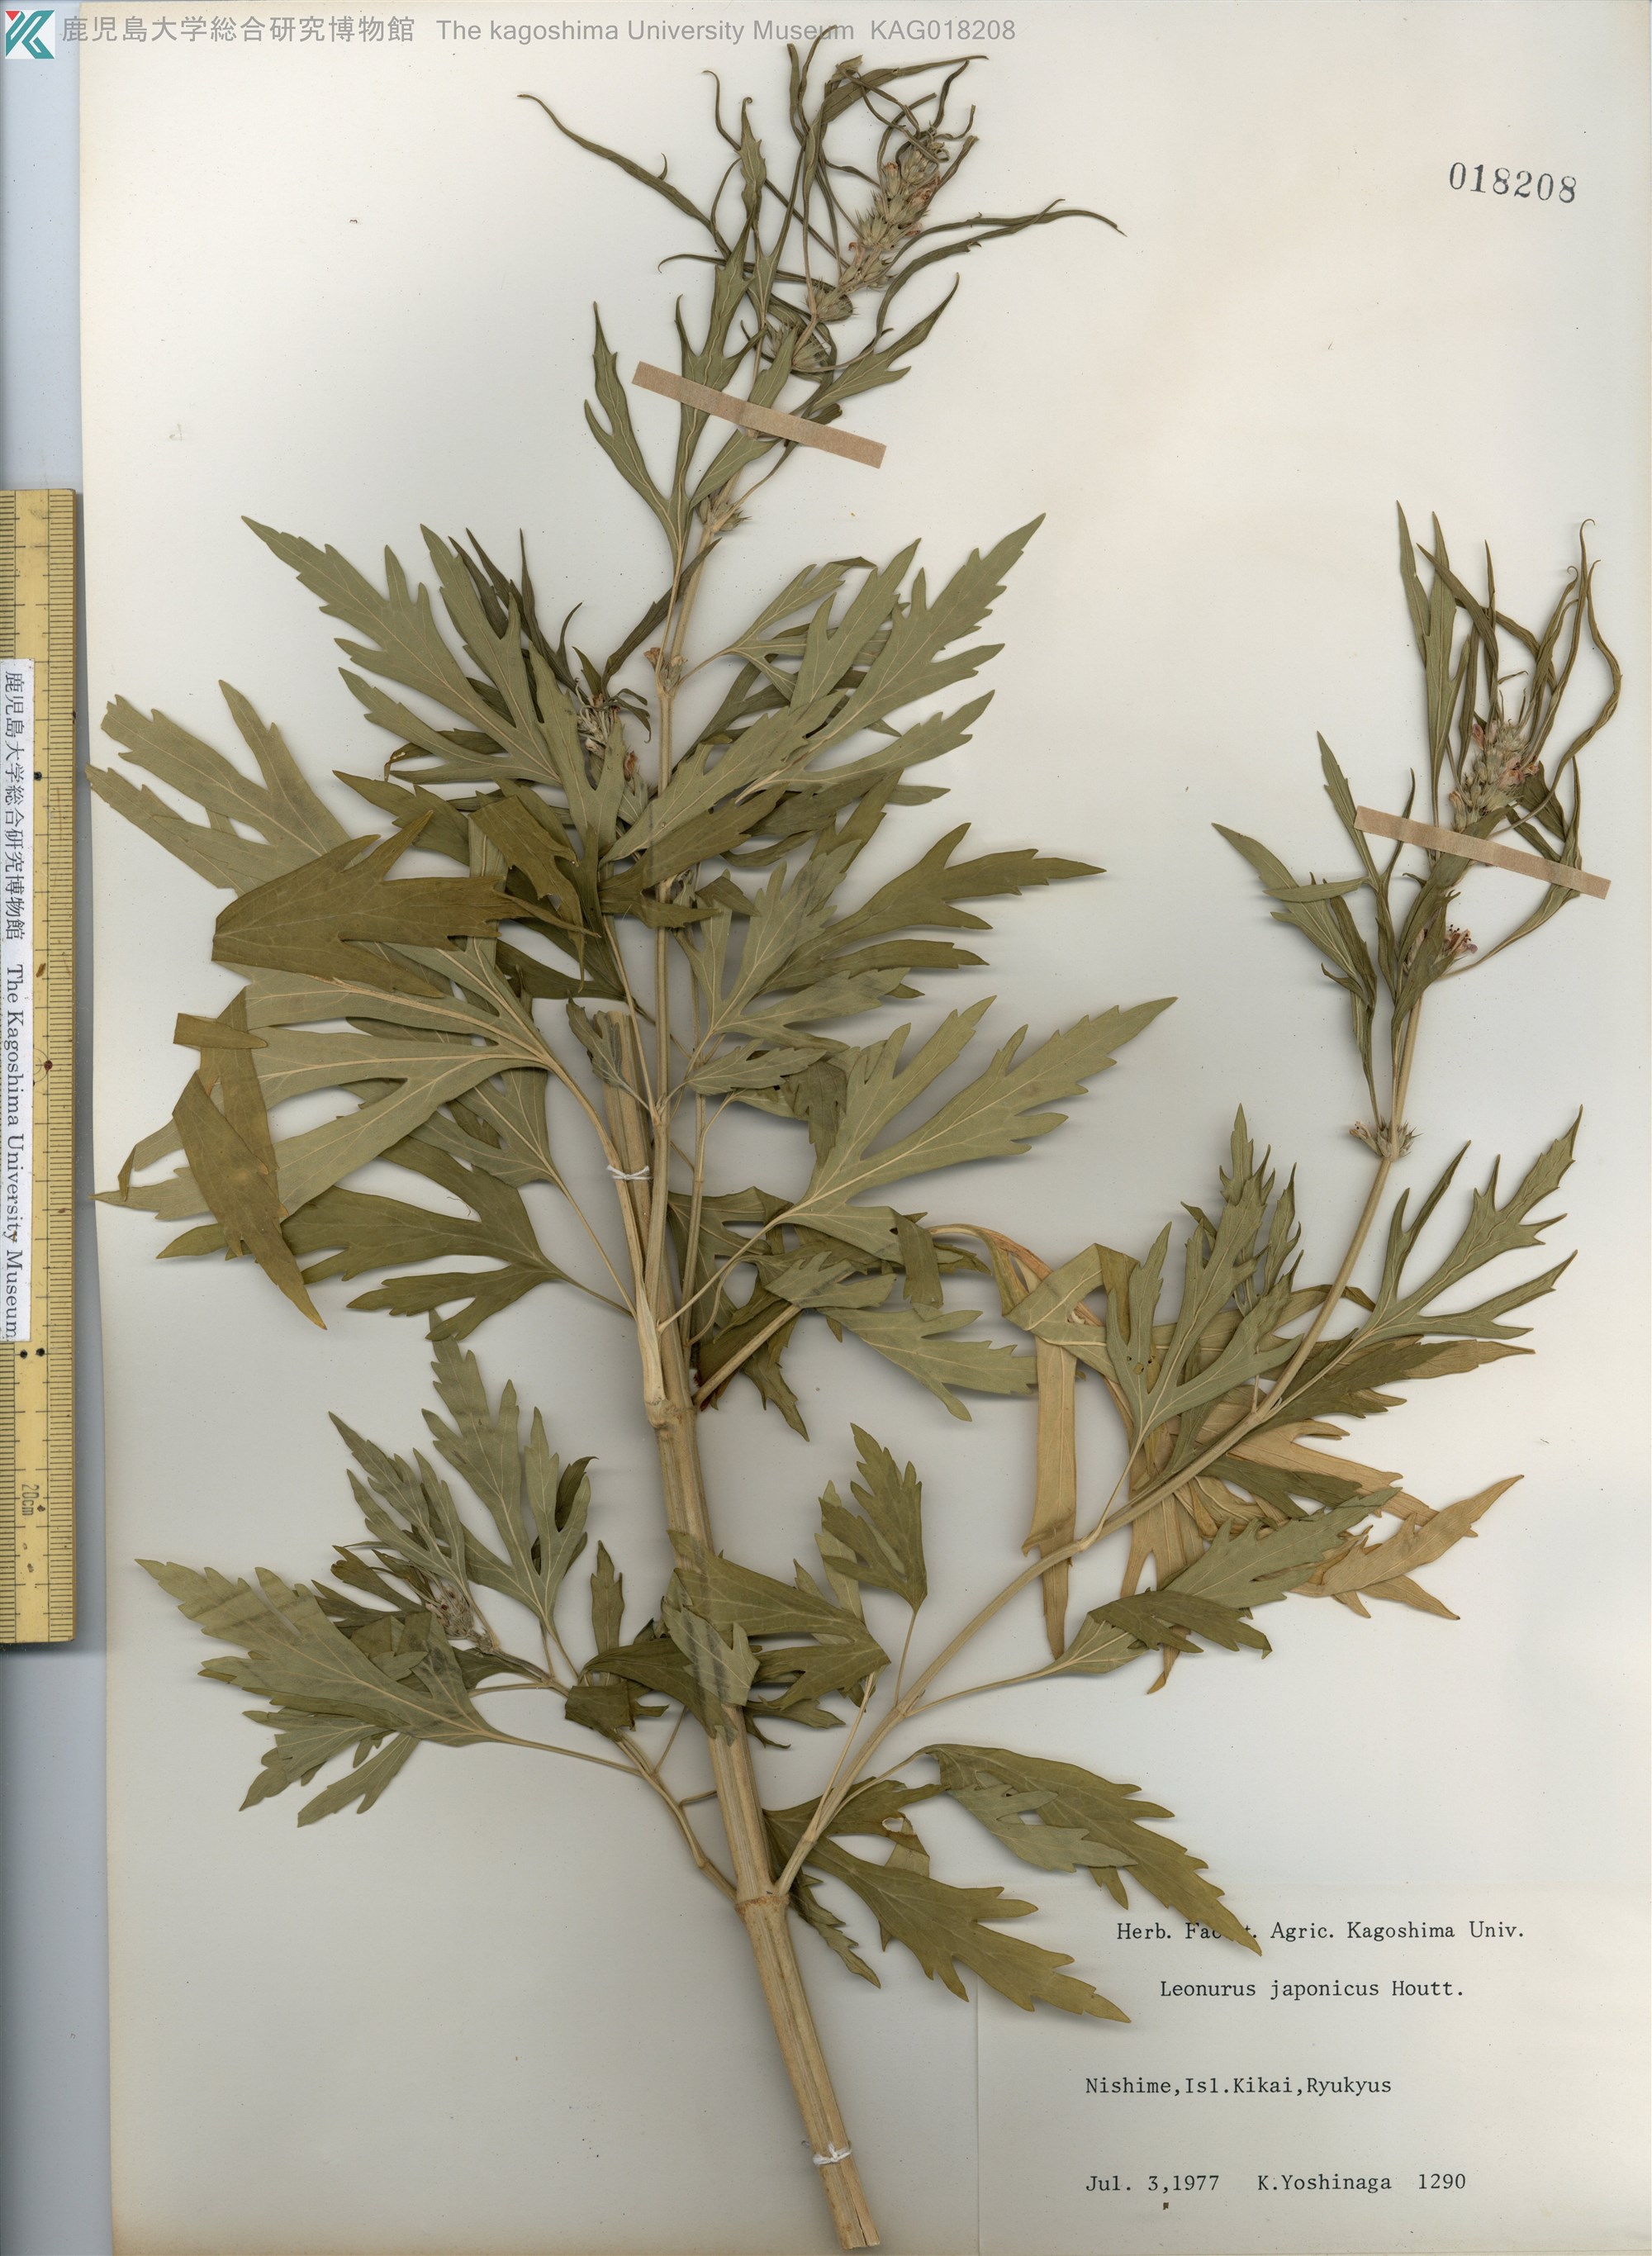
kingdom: Plantae
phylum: Tracheophyta
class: Magnoliopsida
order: Lamiales
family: Lamiaceae
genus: Leonurus
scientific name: Leonurus japonicus
